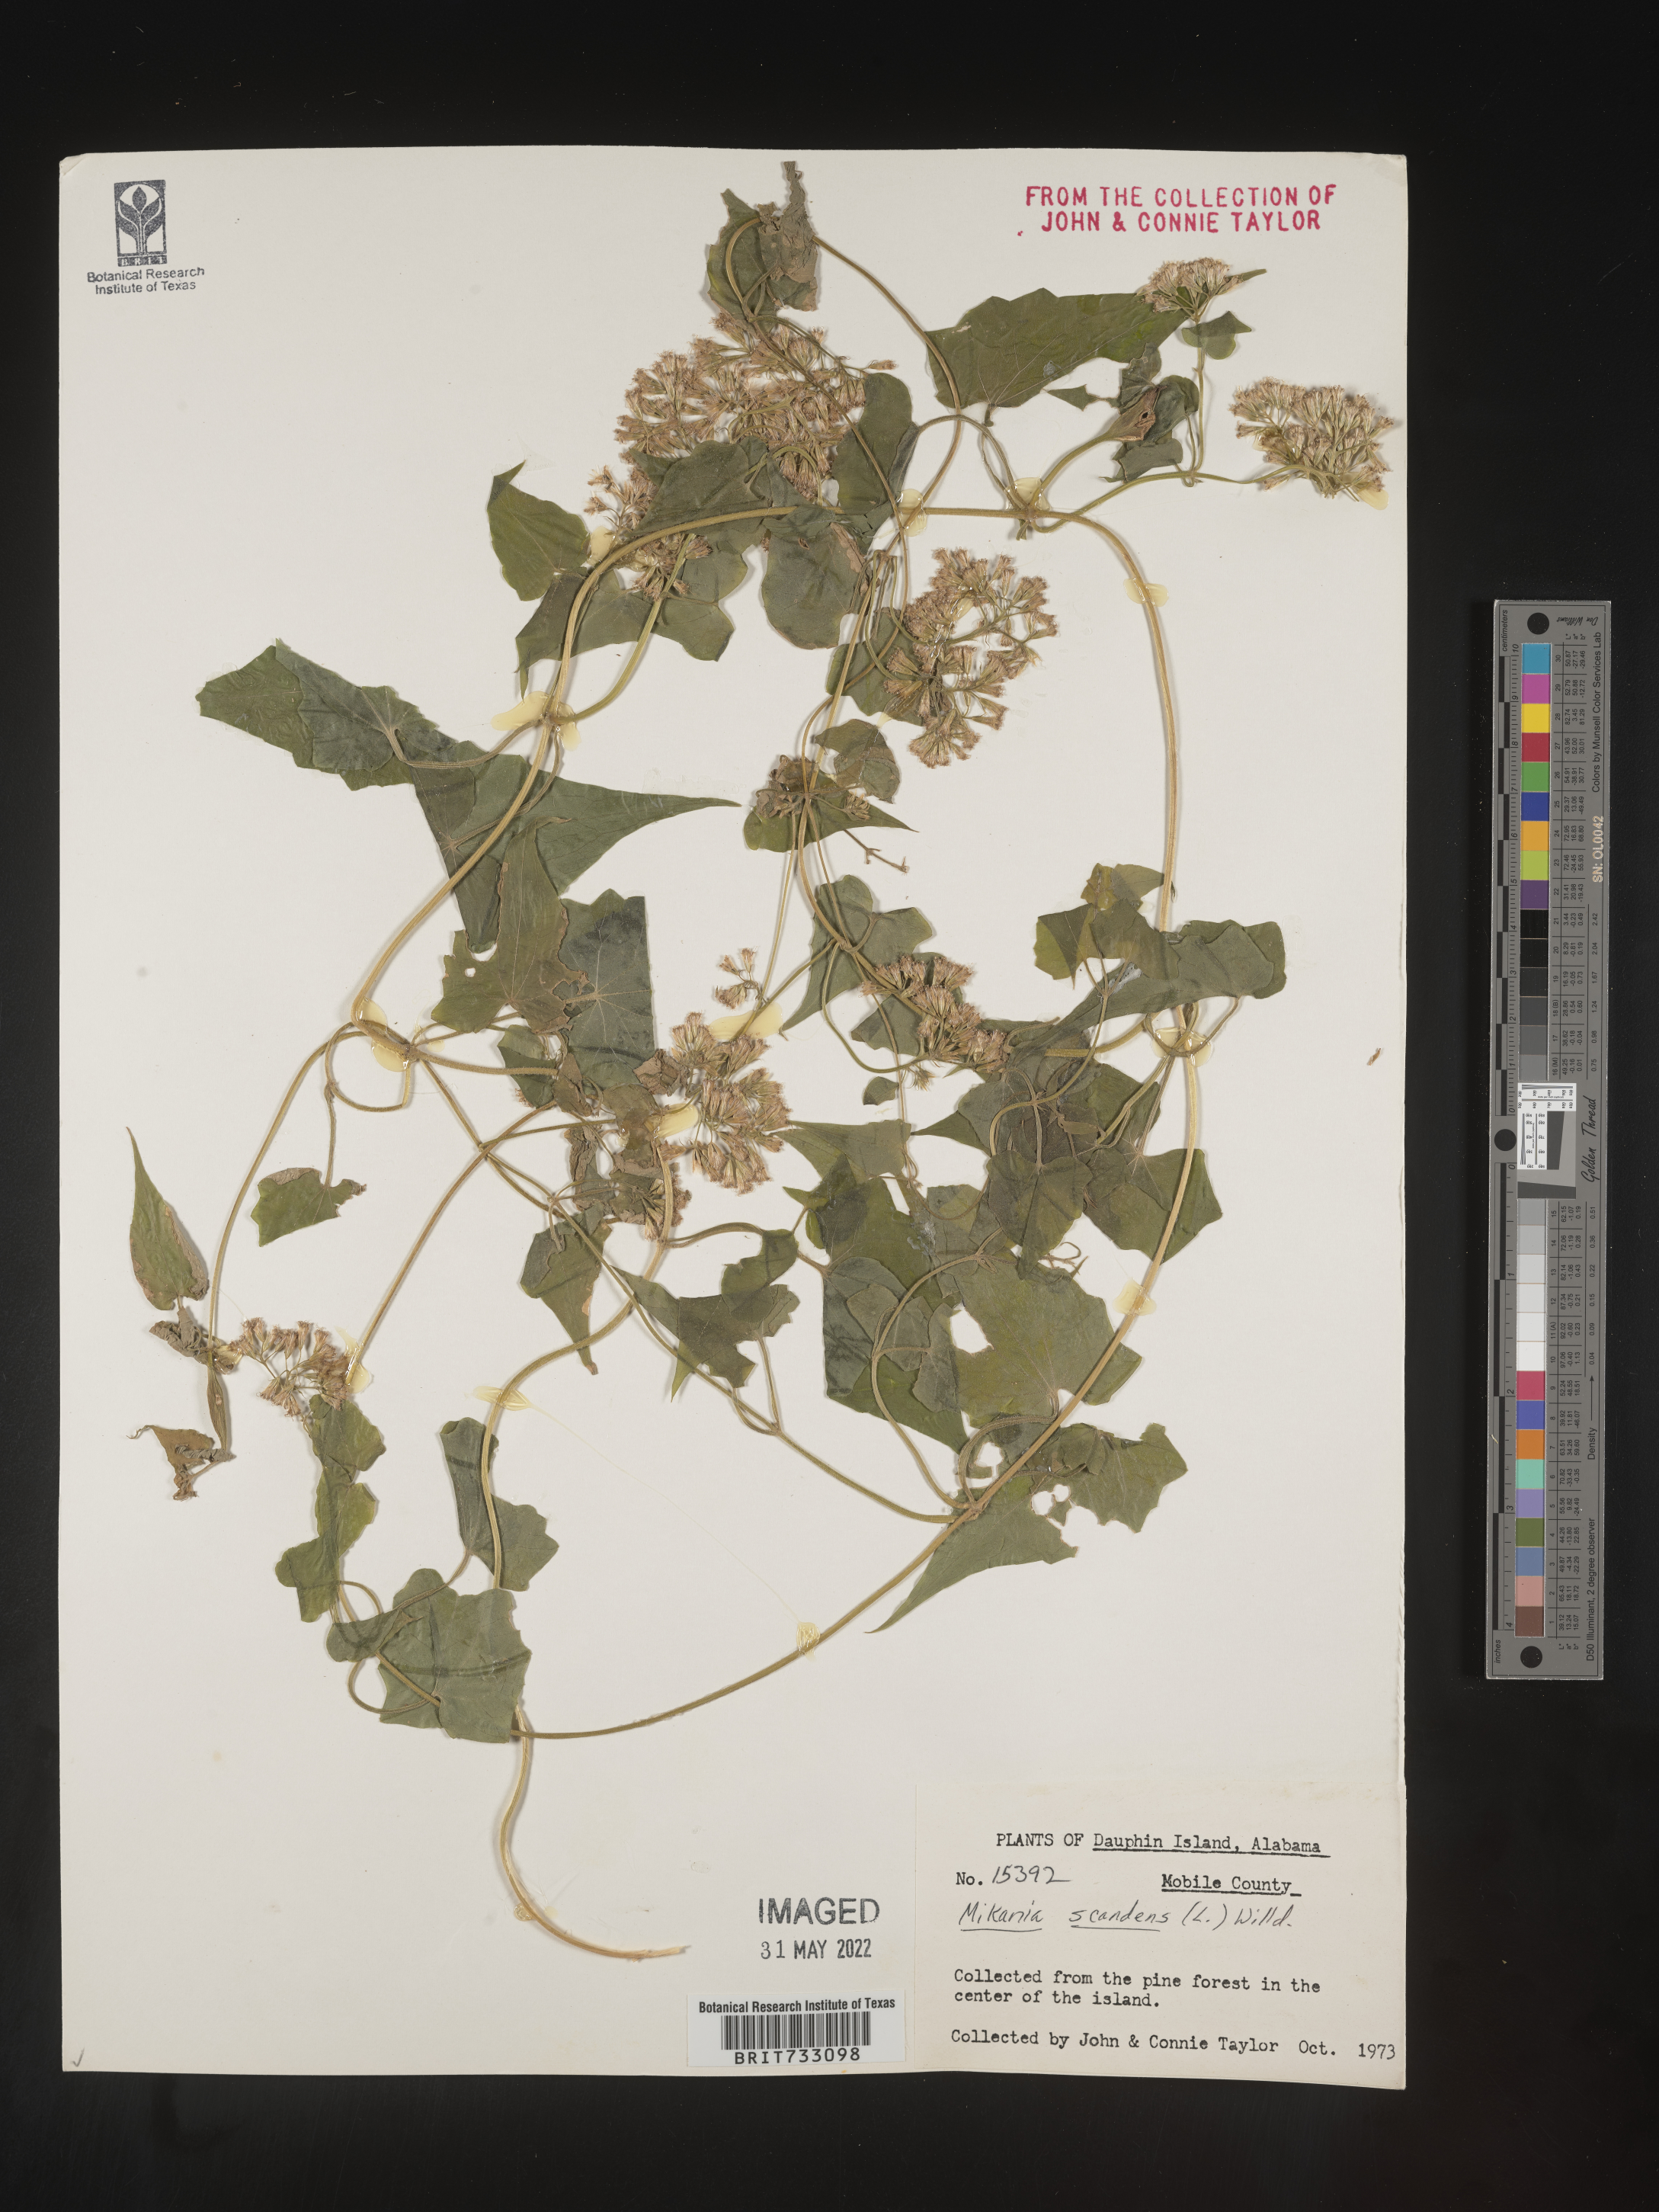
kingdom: Plantae
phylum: Tracheophyta
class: Magnoliopsida
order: Asterales
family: Asteraceae
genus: Mikania
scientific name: Mikania scandens
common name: Climbing hempvine
